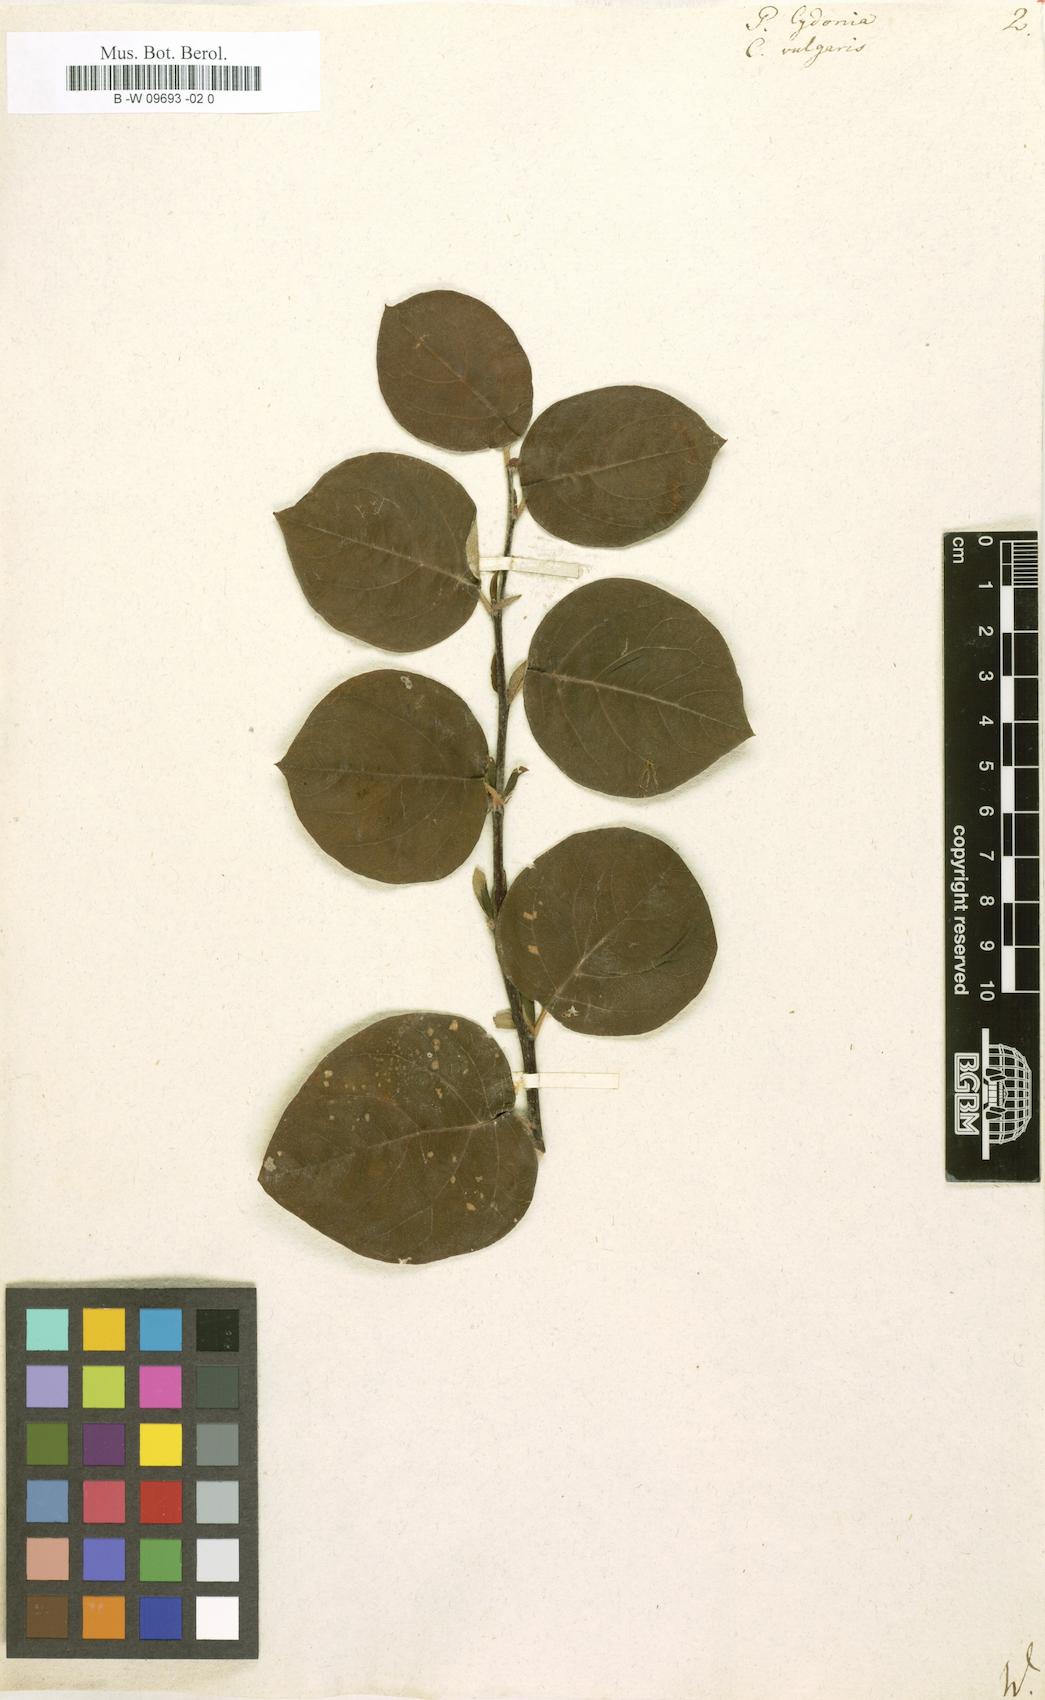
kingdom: Plantae
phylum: Tracheophyta
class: Magnoliopsida
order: Rosales
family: Rosaceae
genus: Cydonia
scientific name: Cydonia oblonga
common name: Quince
